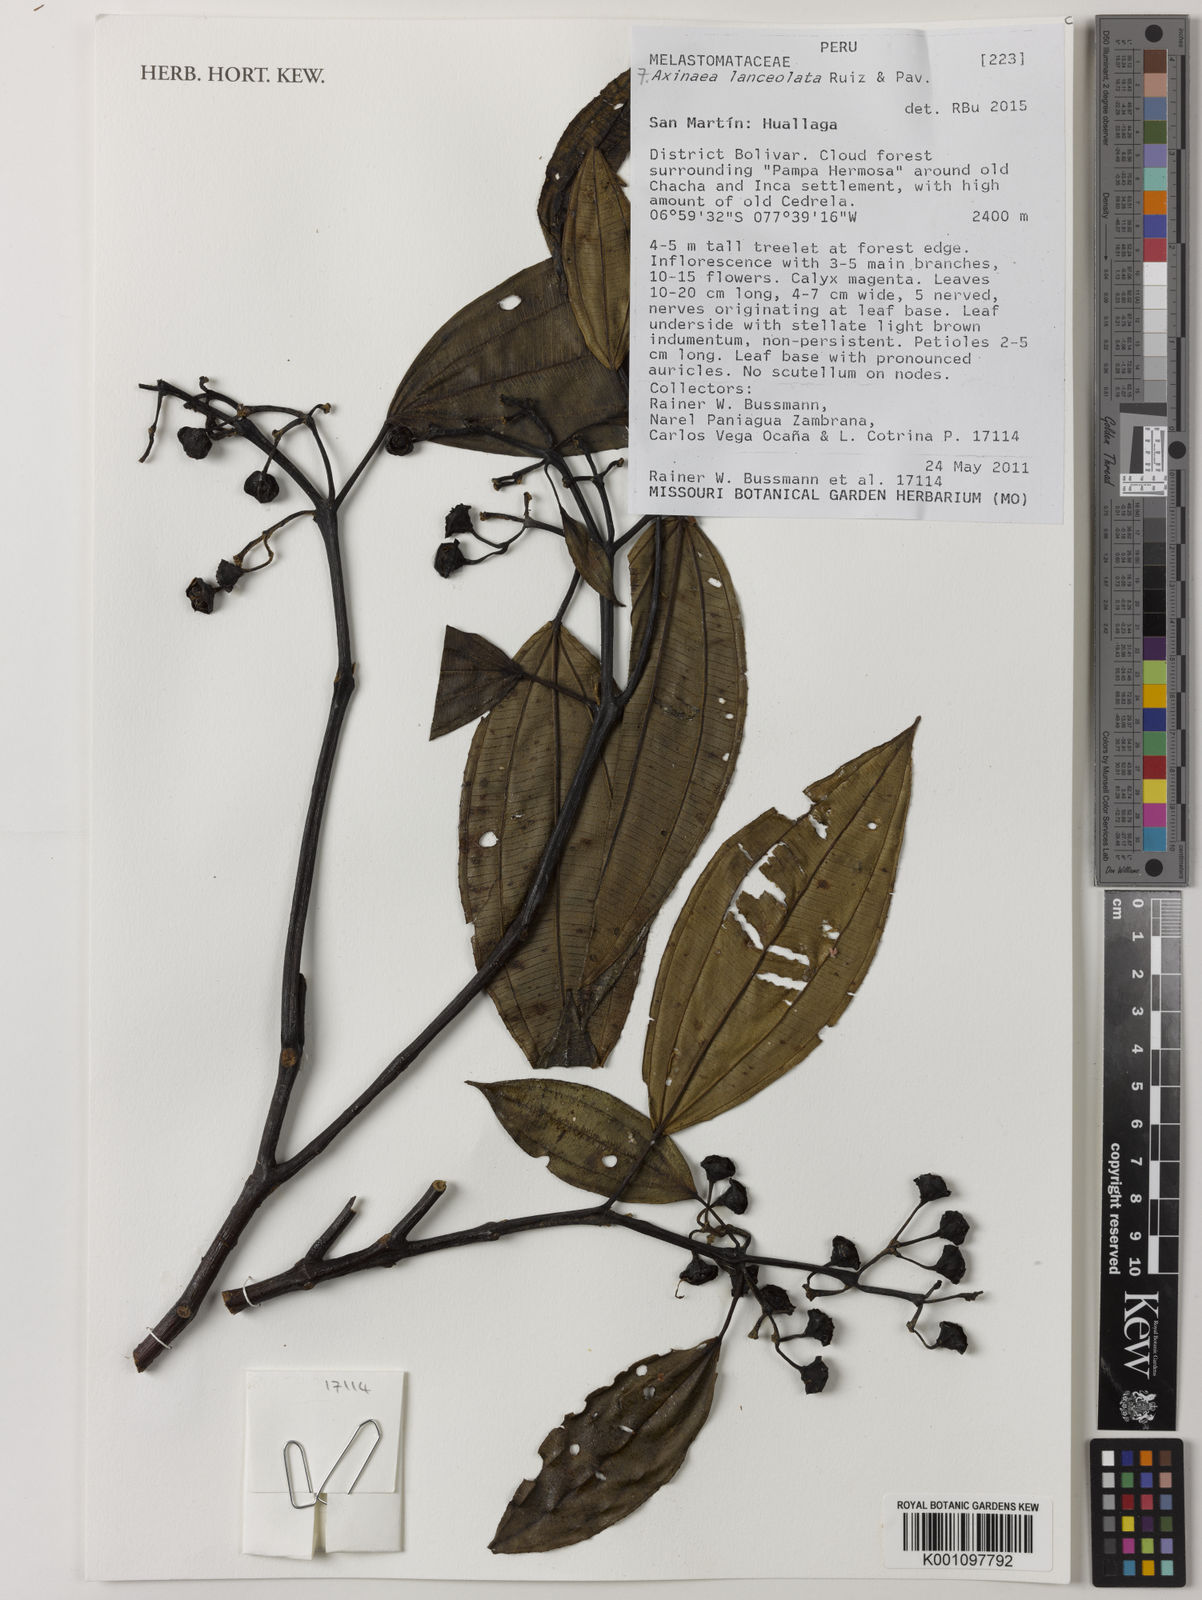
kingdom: Plantae
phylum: Tracheophyta
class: Magnoliopsida
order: Myrtales
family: Melastomataceae
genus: Axinaea
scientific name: Axinaea lanceolata
